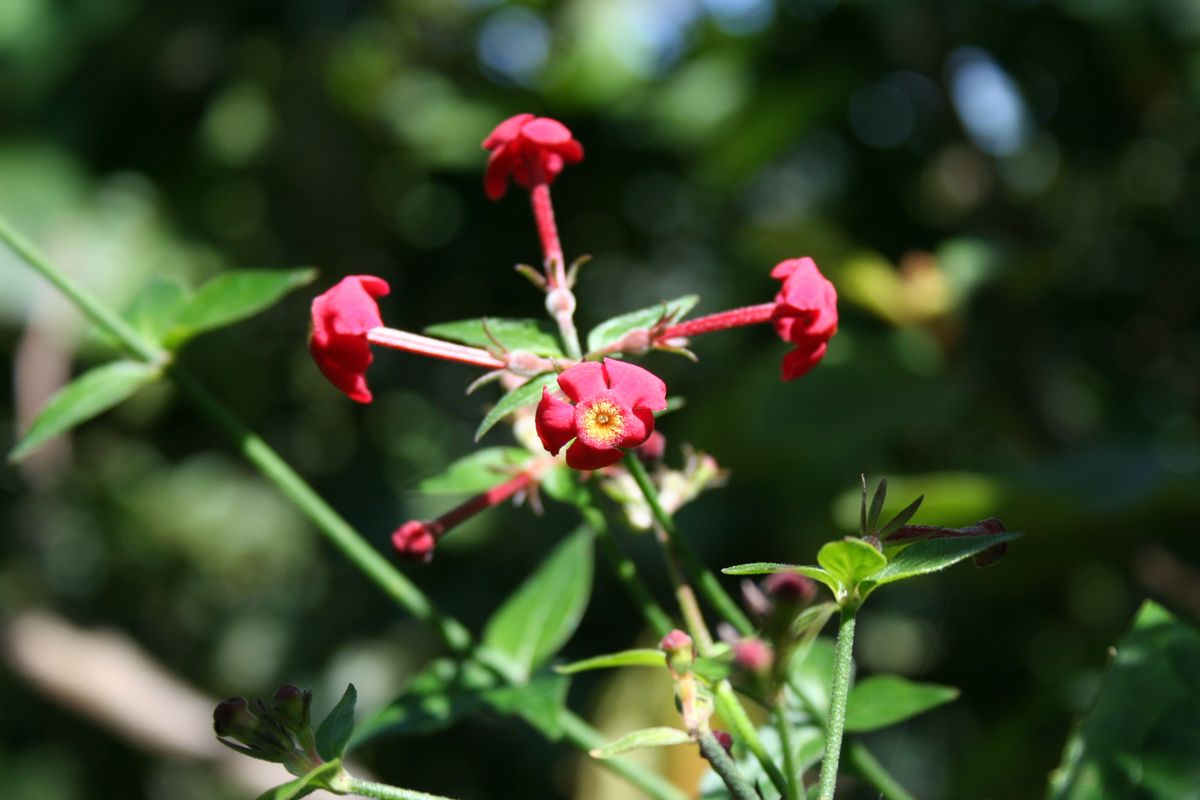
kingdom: Plantae
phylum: Tracheophyta
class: Magnoliopsida
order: Gentianales
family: Rubiaceae
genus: Rovaeanthus
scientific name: Rovaeanthus strigosus
